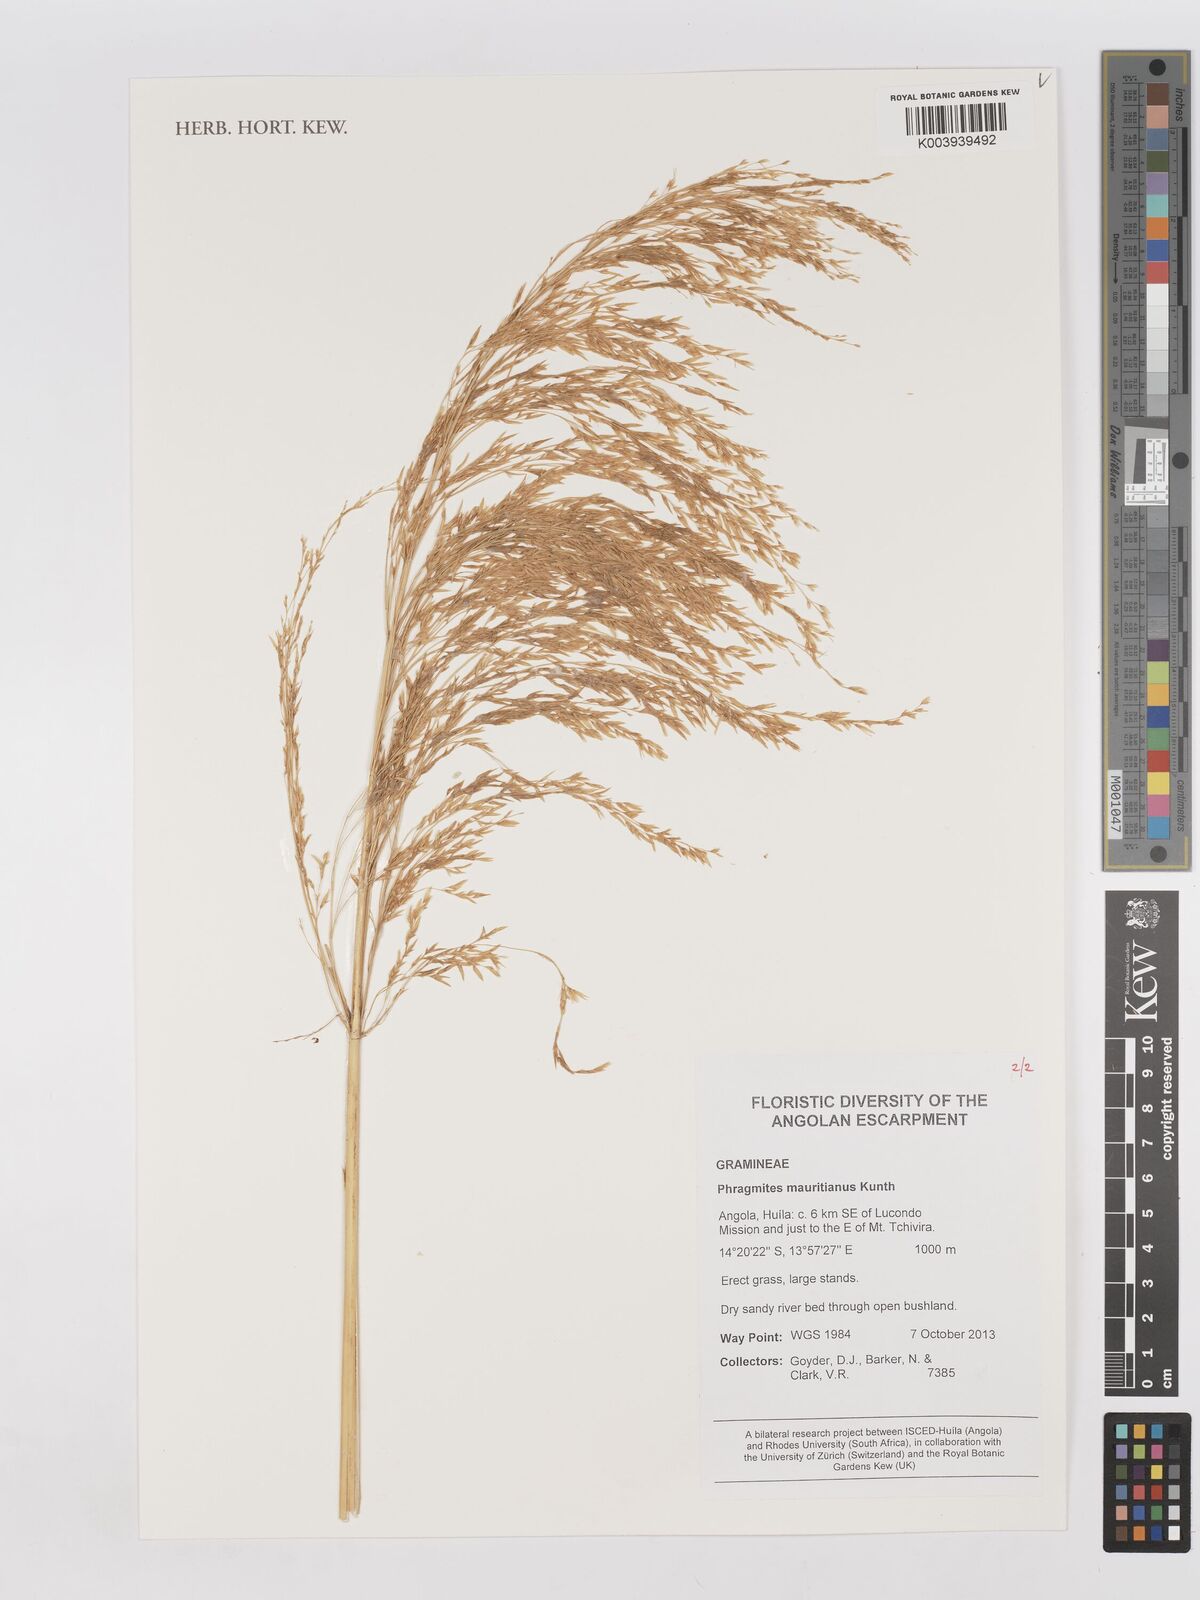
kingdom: Plantae
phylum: Tracheophyta
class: Liliopsida
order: Poales
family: Poaceae
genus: Phragmites
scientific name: Phragmites mauritianus
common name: Reed grass
